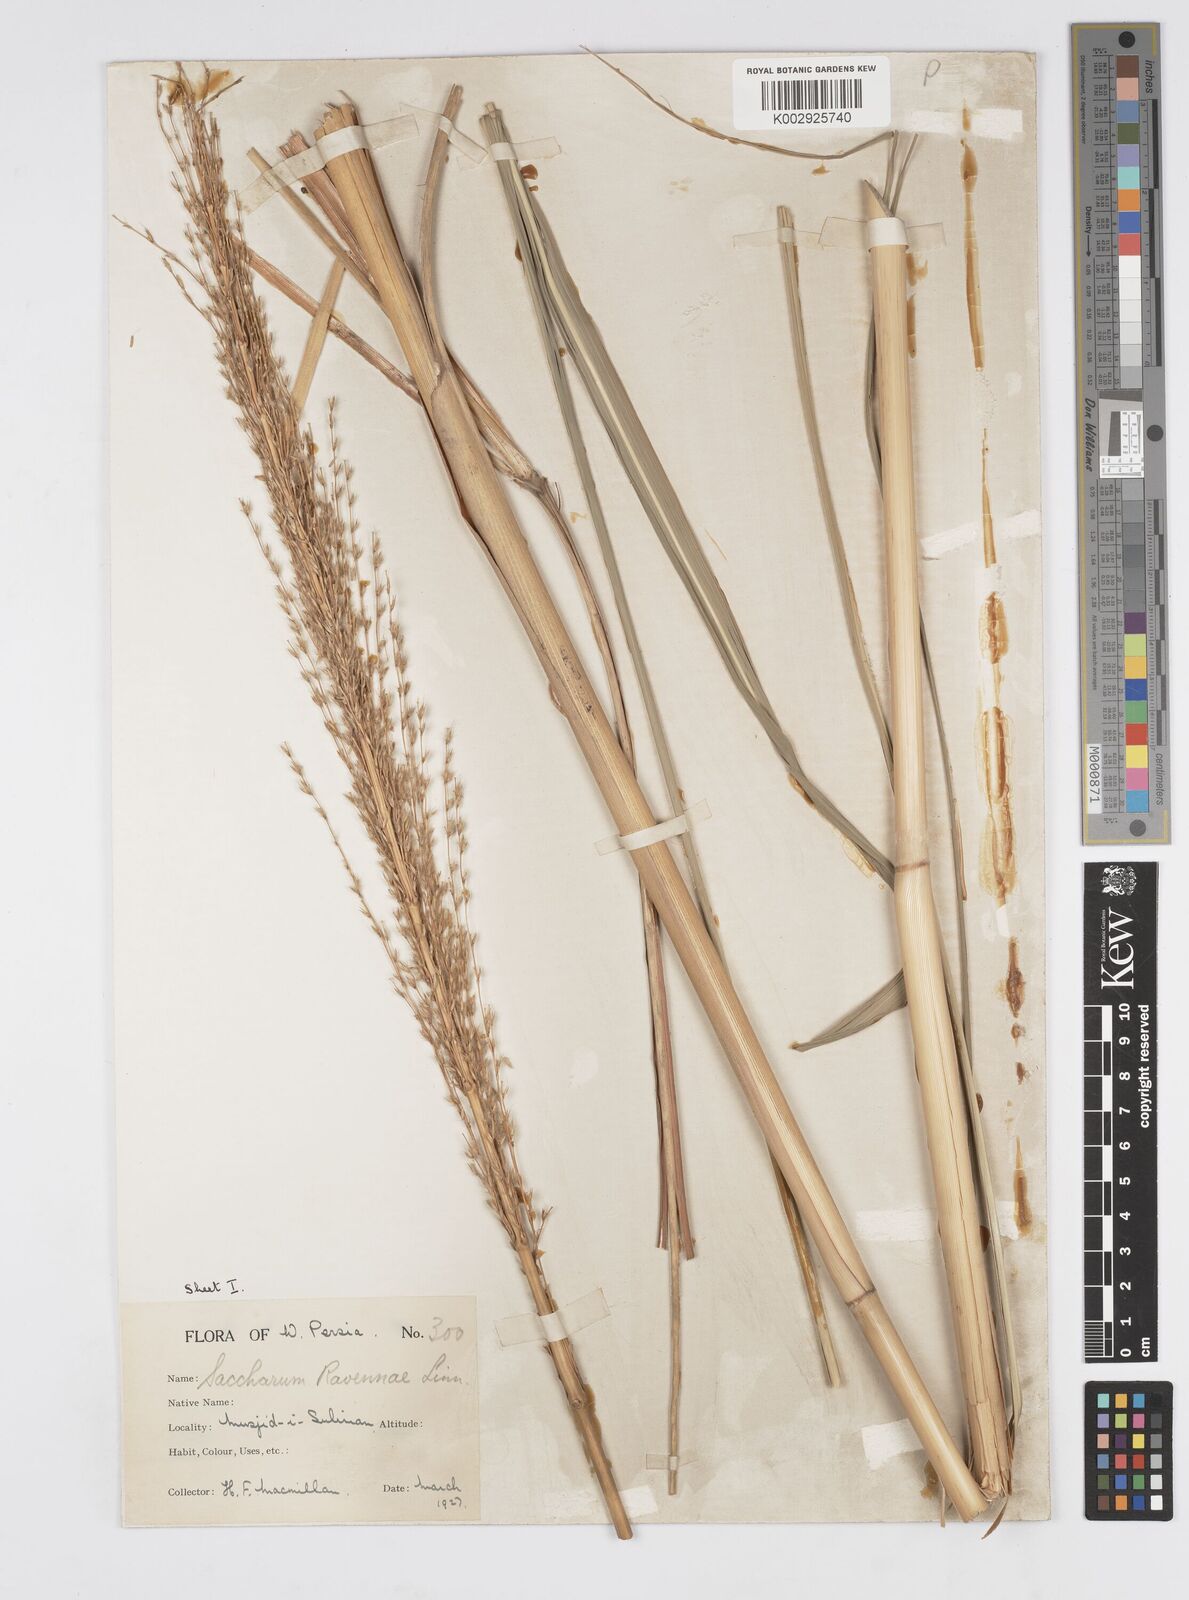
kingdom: Plantae
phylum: Tracheophyta
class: Liliopsida
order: Poales
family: Poaceae
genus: Tripidium
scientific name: Tripidium ravennae
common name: Ravenna grass
